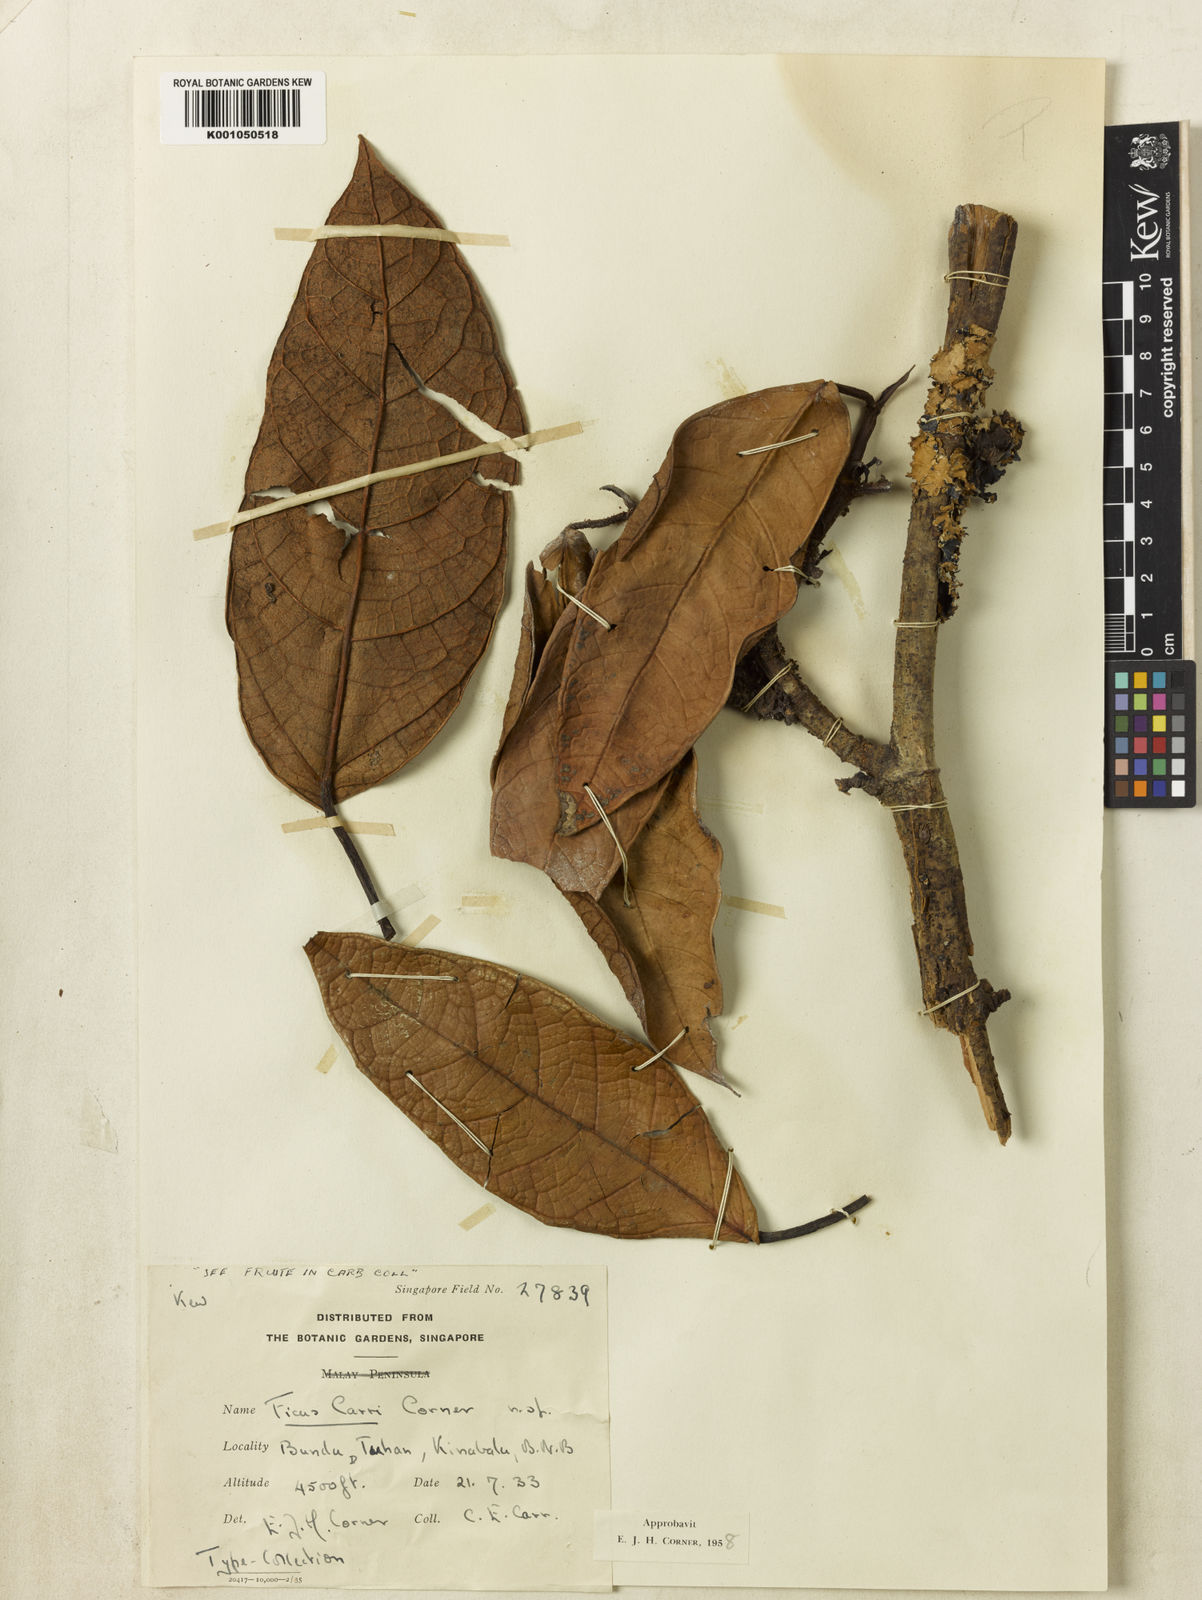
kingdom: Plantae
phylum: Tracheophyta
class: Magnoliopsida
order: Rosales
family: Moraceae
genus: Ficus
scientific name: Ficus carrii
